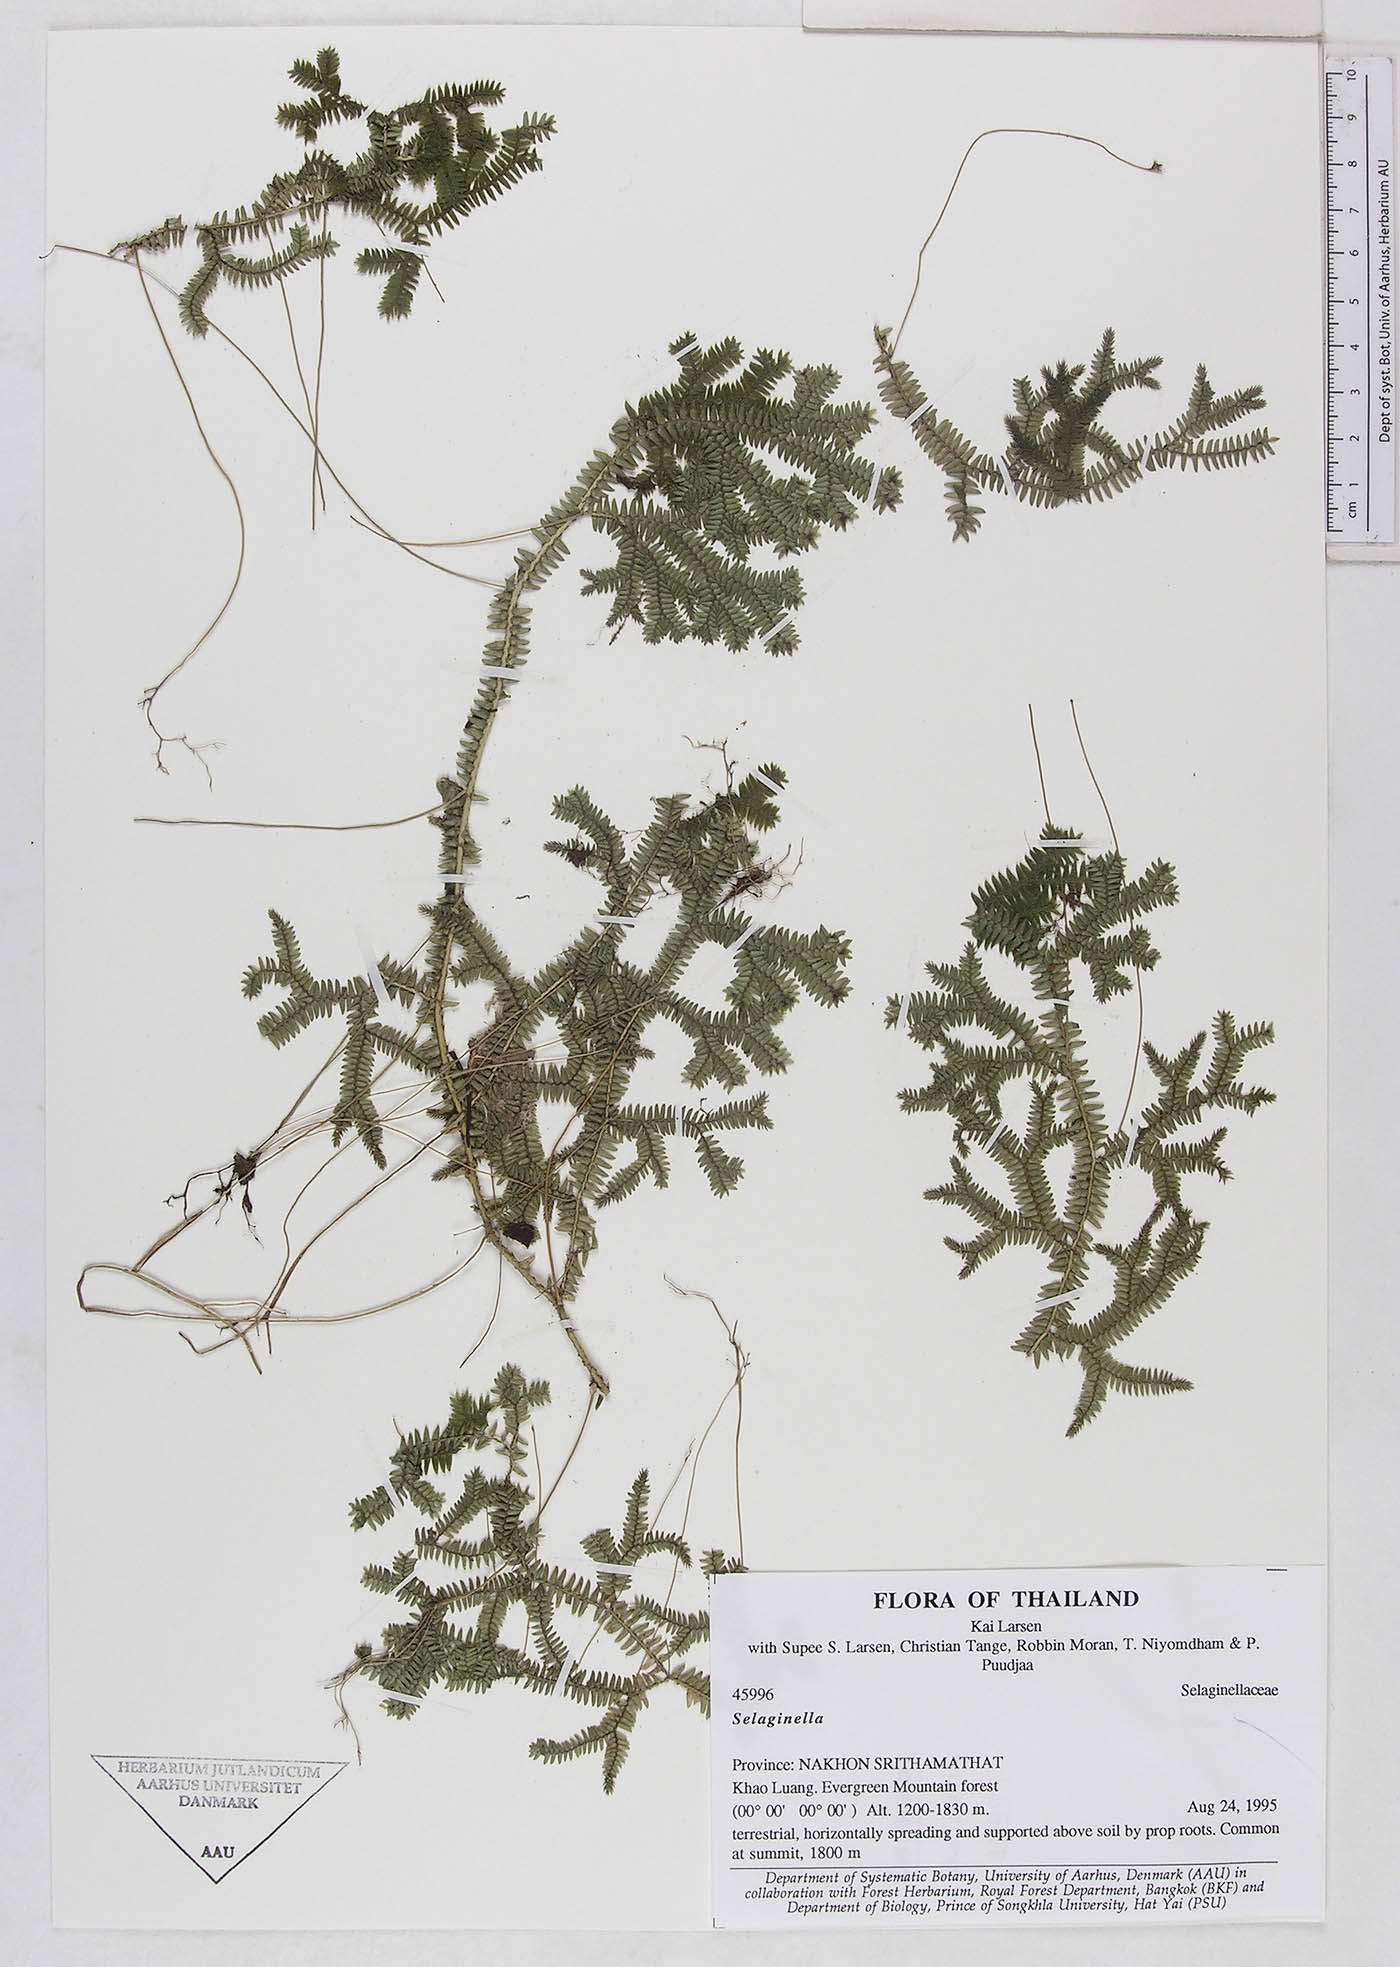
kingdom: Plantae
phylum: Tracheophyta
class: Lycopodiopsida
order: Selaginellales
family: Selaginellaceae
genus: Selaginella
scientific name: Selaginella
